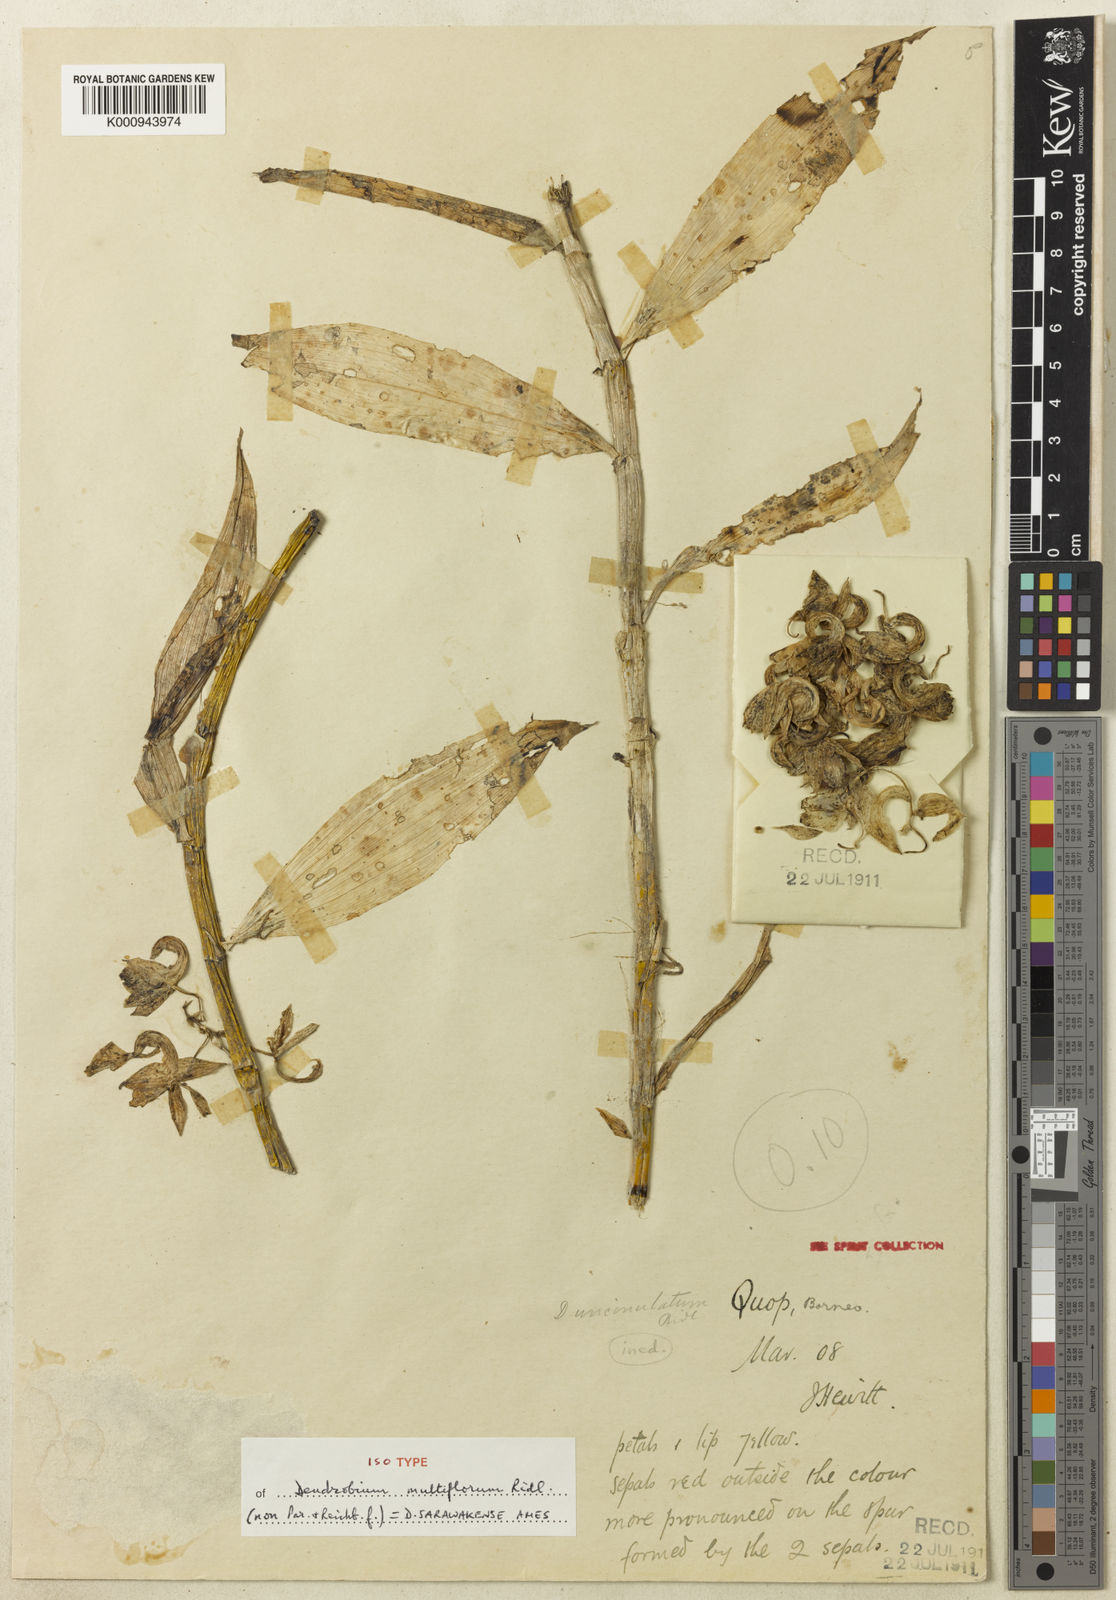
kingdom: Plantae
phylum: Tracheophyta
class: Liliopsida
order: Asparagales
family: Orchidaceae
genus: Dendrobium
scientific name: Dendrobium sarawakense
